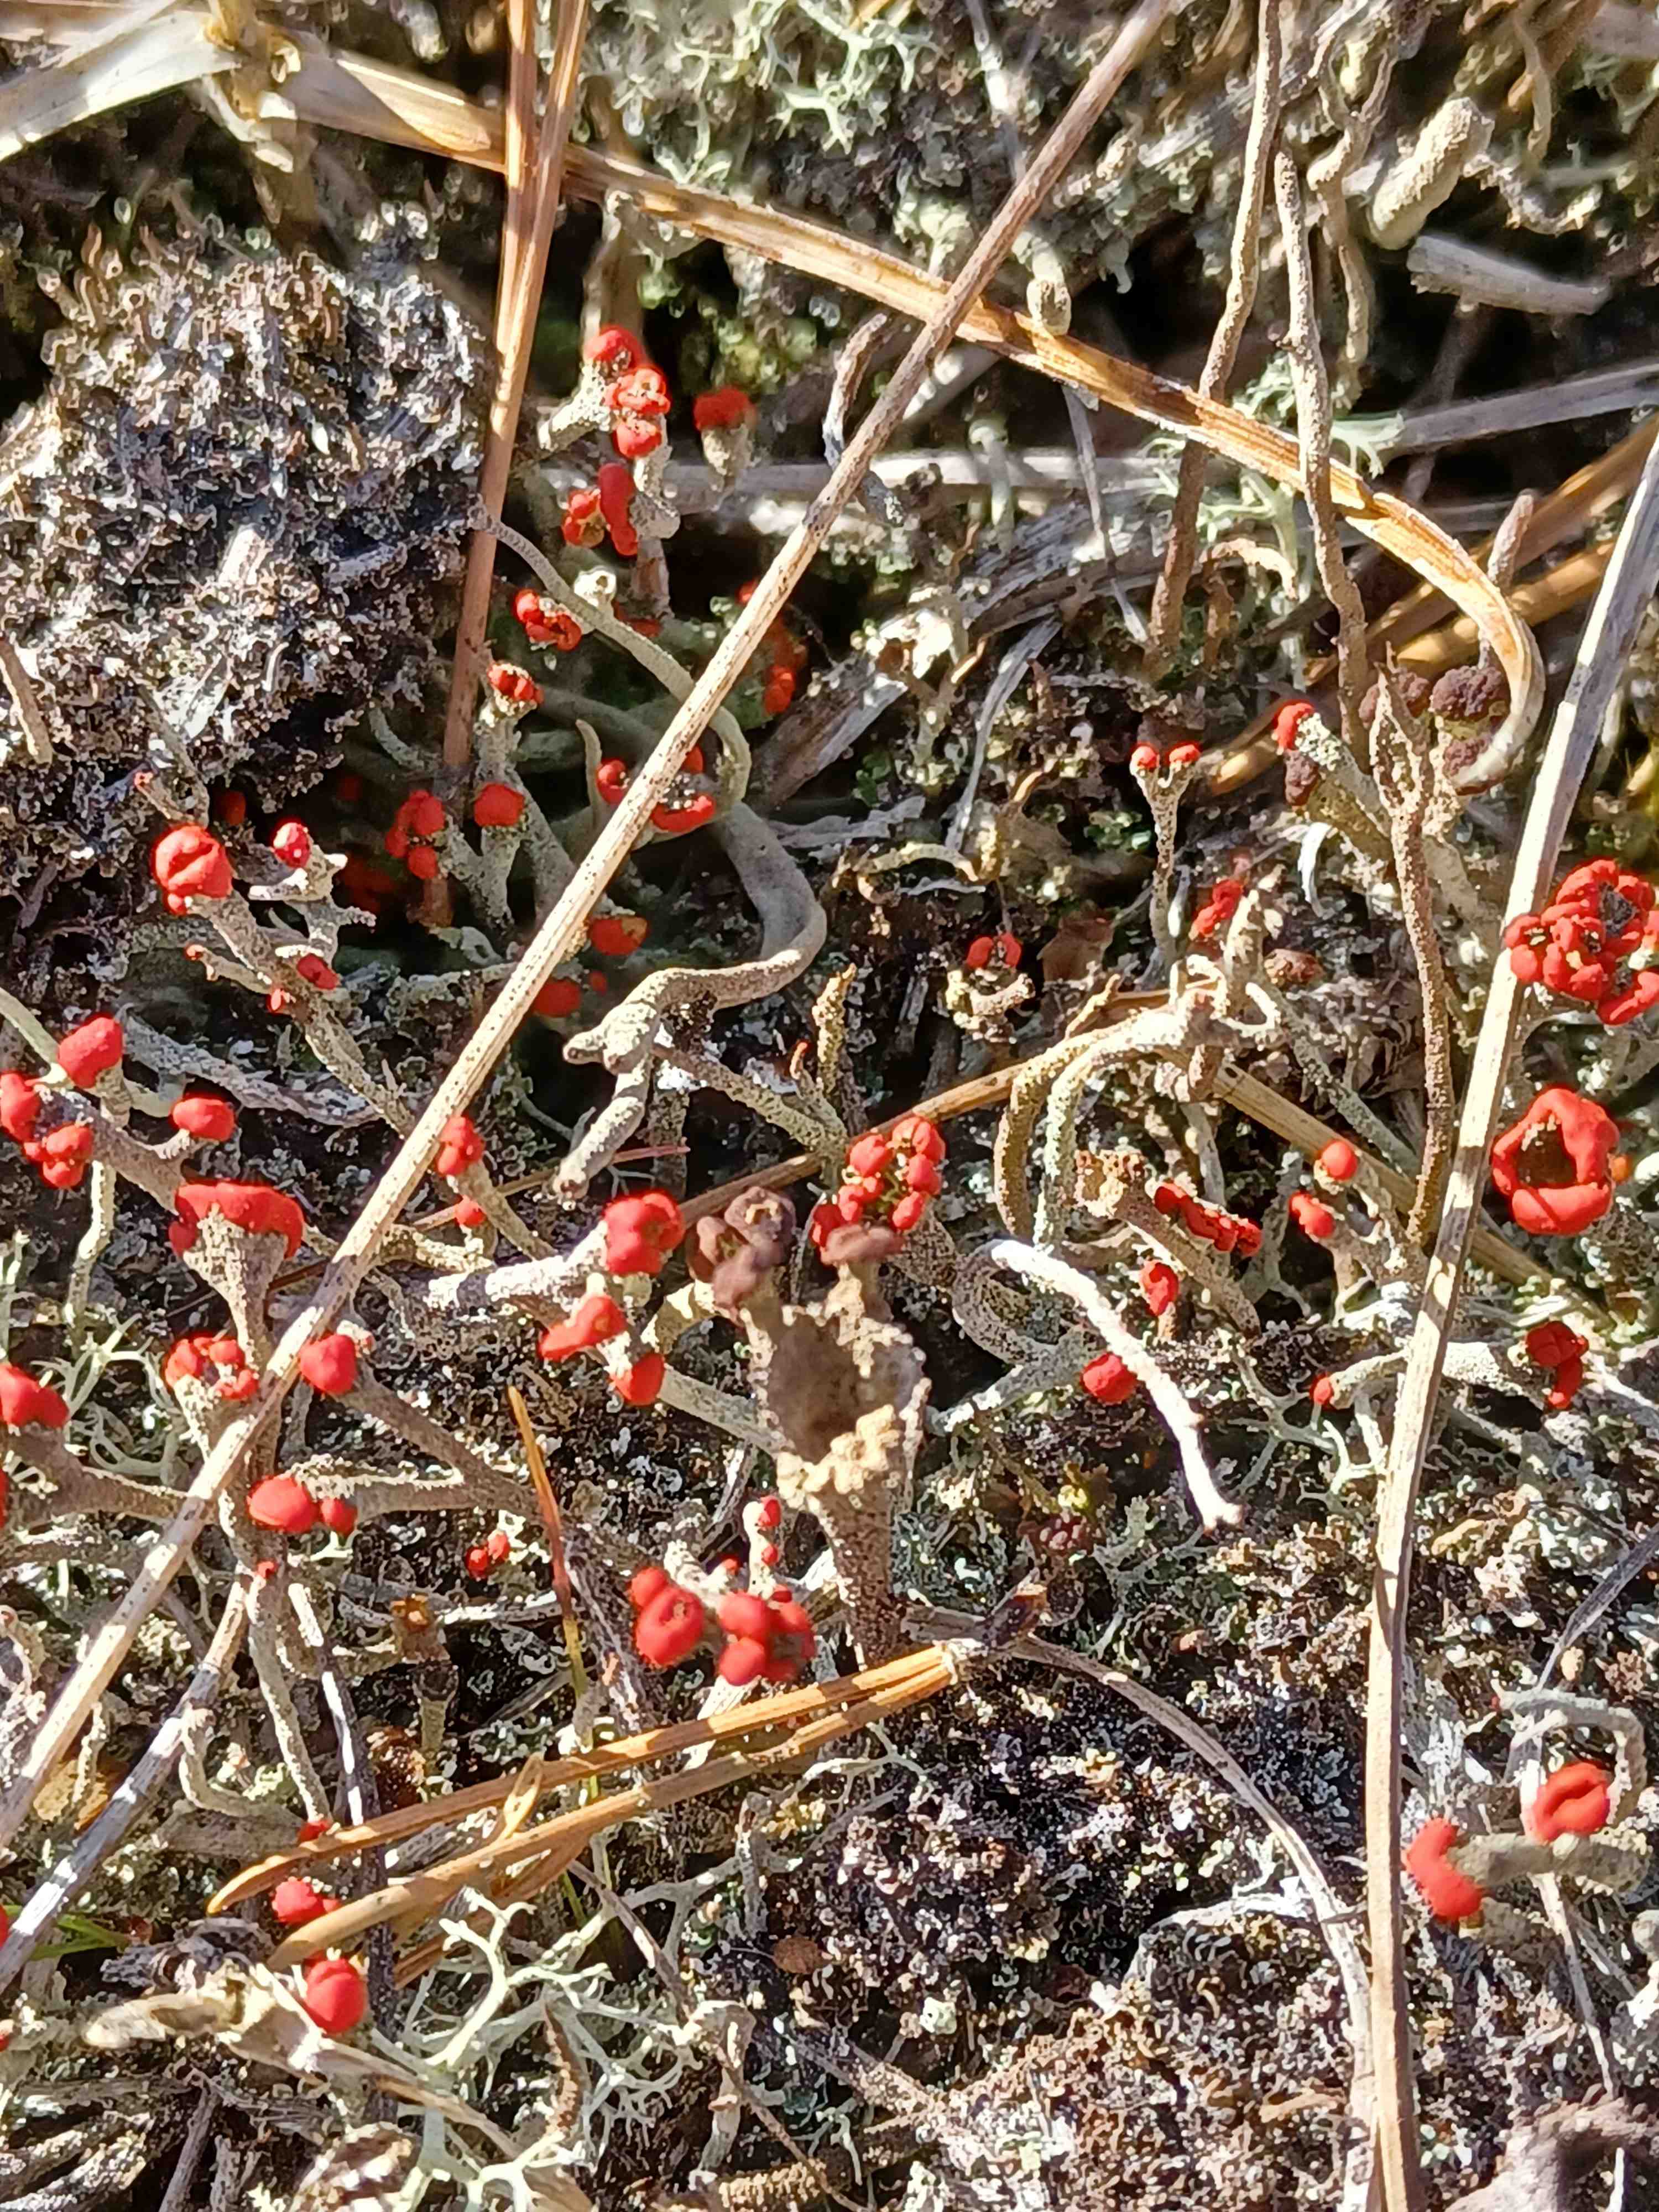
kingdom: Fungi
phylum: Ascomycota
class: Lecanoromycetes
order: Lecanorales
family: Cladoniaceae
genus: Cladonia
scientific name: Cladonia floerkeana
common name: lakrød bægerlav
